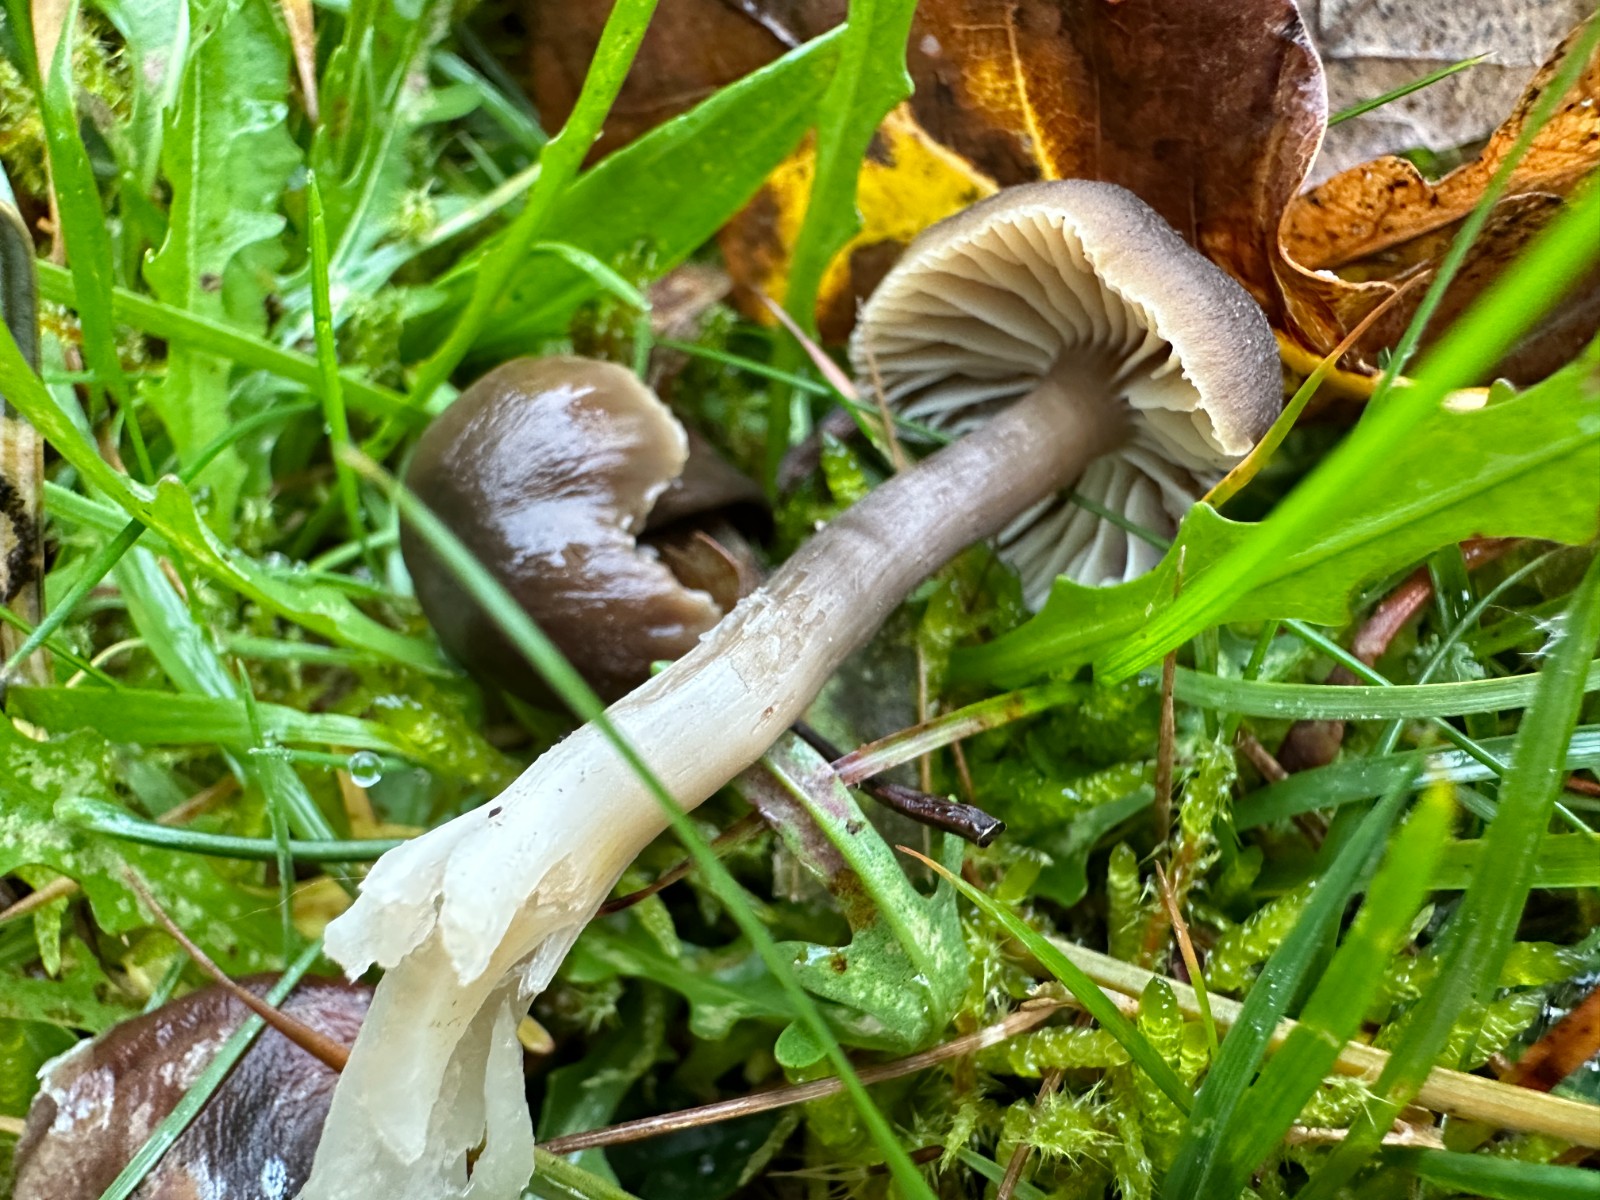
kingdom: Fungi
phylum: Basidiomycota
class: Agaricomycetes
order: Agaricales
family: Hygrophoraceae
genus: Neohygrocybe
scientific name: Neohygrocybe nitrata
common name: stinkende vokshat
